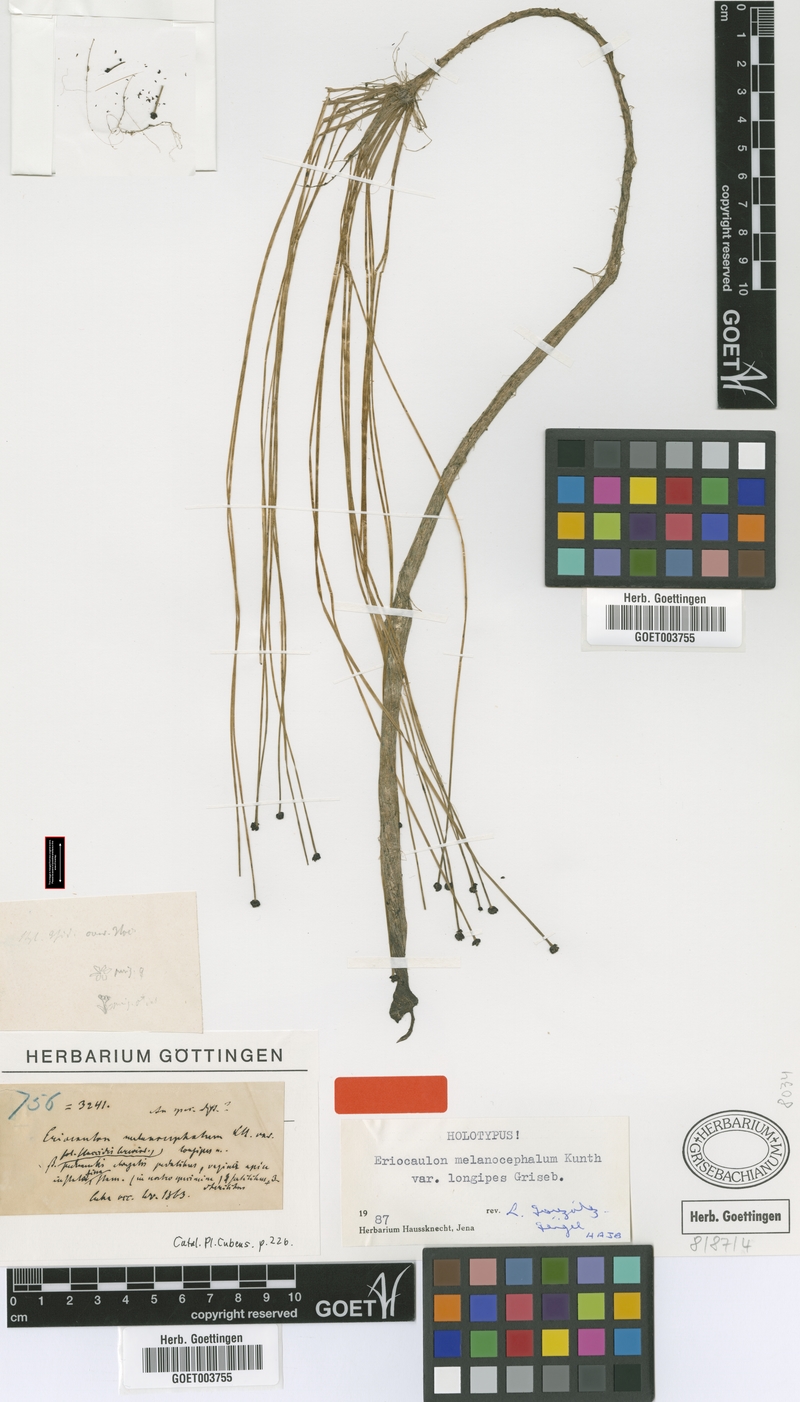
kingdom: Plantae
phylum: Tracheophyta
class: Liliopsida
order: Poales
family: Eriocaulaceae
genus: Eriocaulon
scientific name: Eriocaulon melanocephalum
